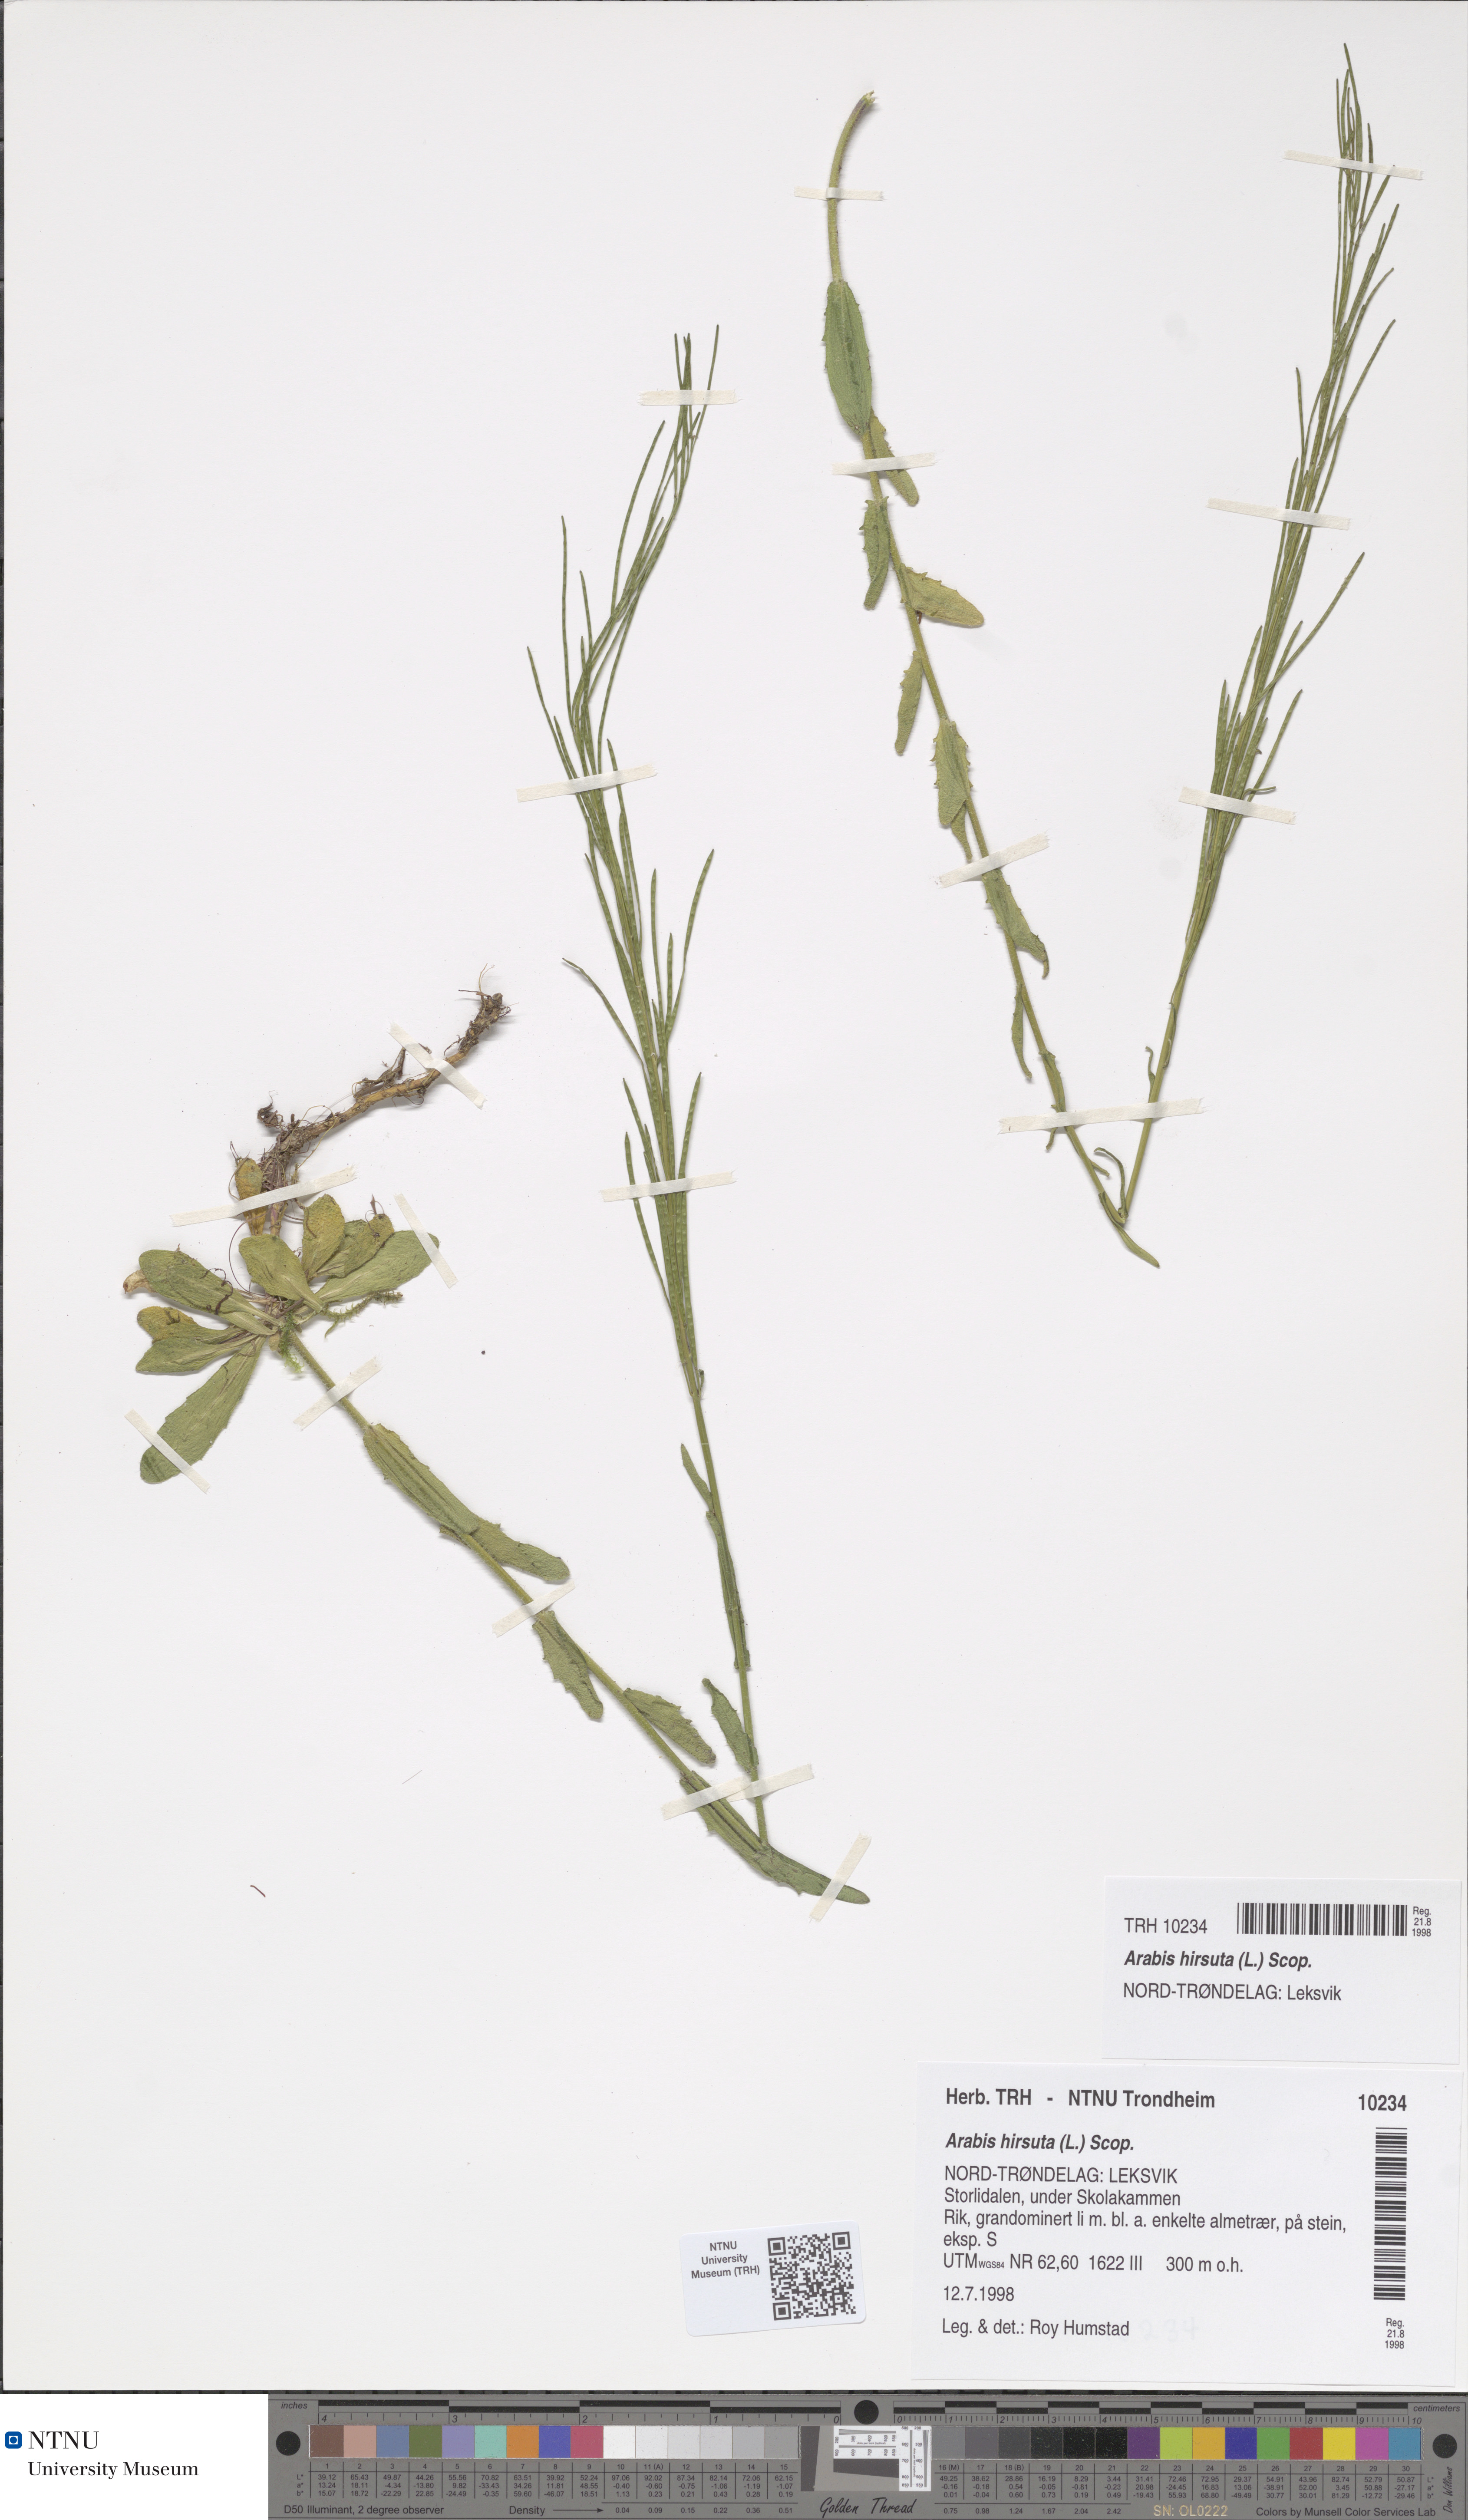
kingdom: Plantae
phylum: Tracheophyta
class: Magnoliopsida
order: Brassicales
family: Brassicaceae
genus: Arabis
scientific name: Arabis hirsuta
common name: Hairy rock-cress
